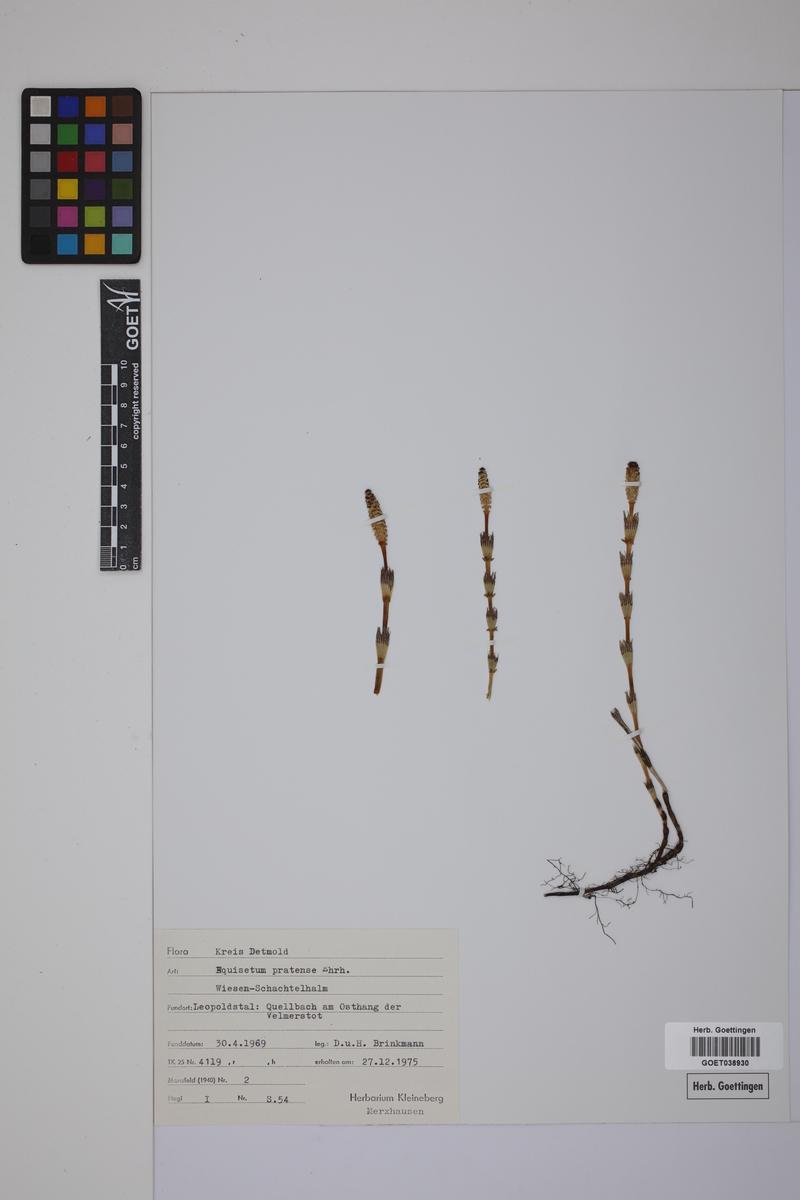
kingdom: Plantae
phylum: Tracheophyta
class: Polypodiopsida
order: Equisetales
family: Equisetaceae
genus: Equisetum
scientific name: Equisetum pratense
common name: Meadow horsetail
